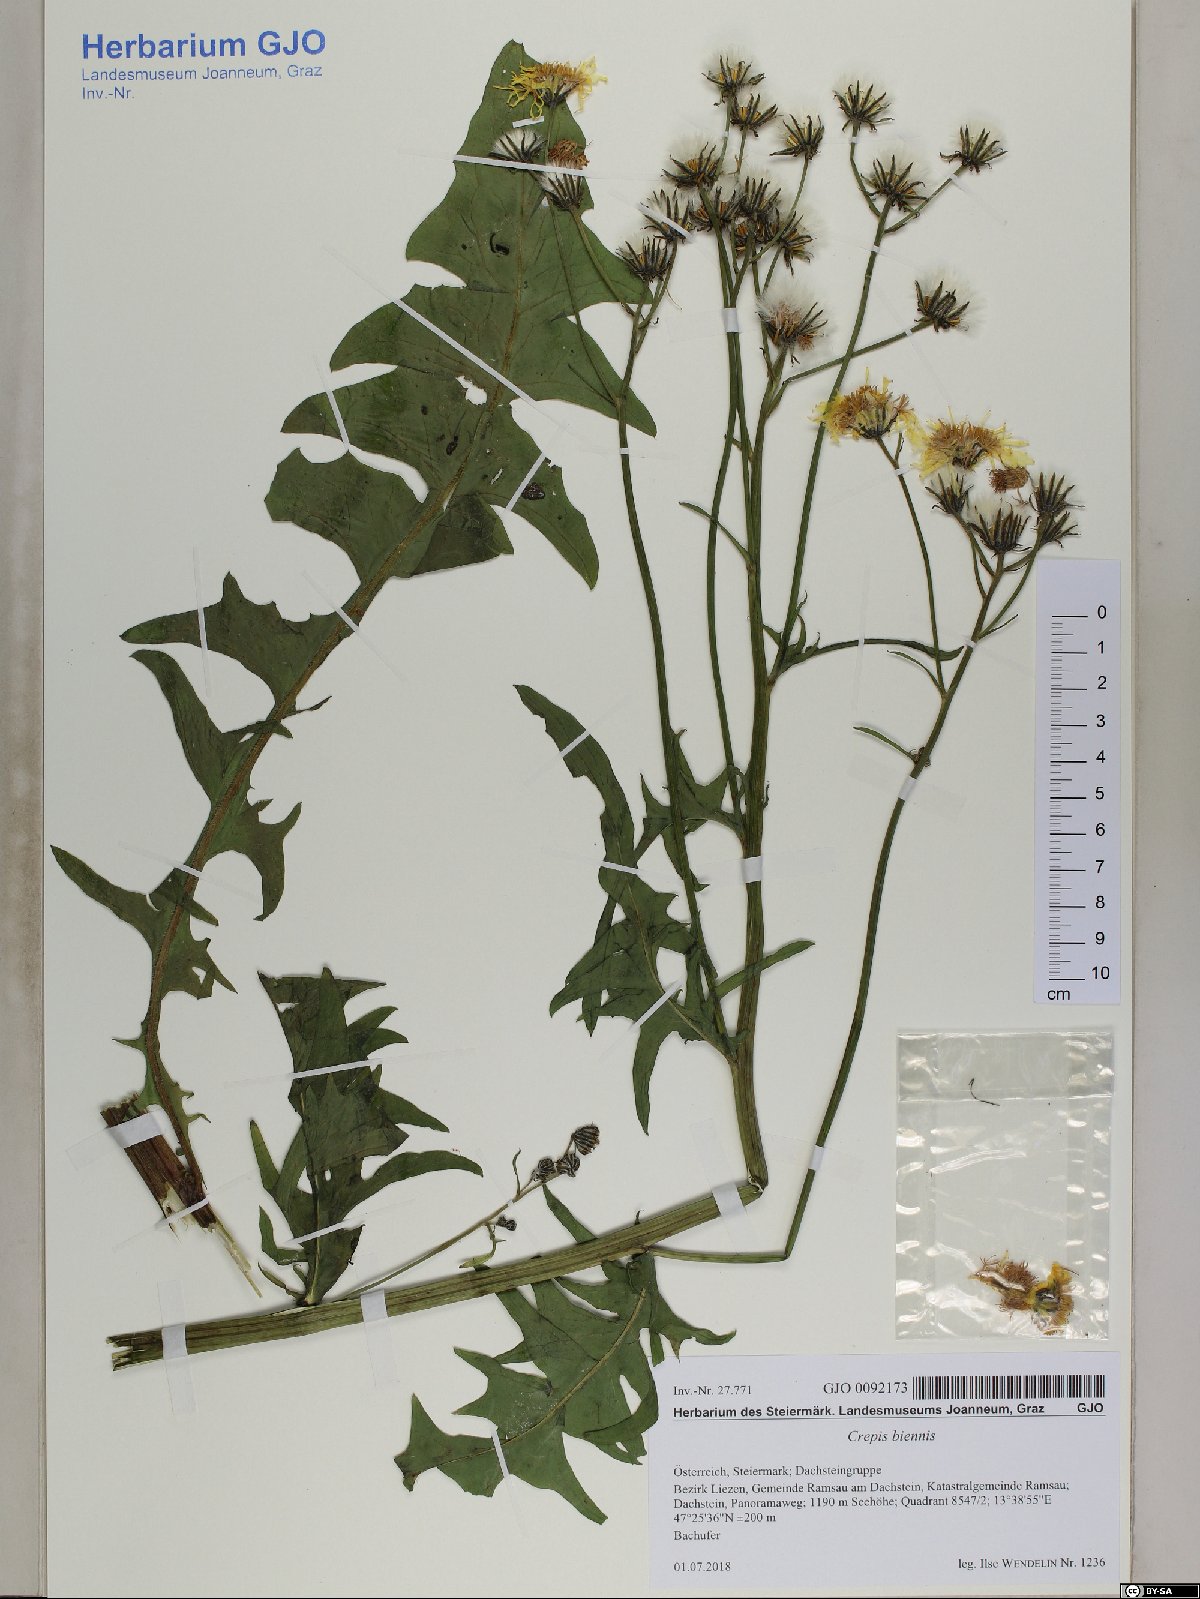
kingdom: Plantae
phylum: Tracheophyta
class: Magnoliopsida
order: Asterales
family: Asteraceae
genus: Crepis
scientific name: Crepis biennis
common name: Rough hawk's-beard
